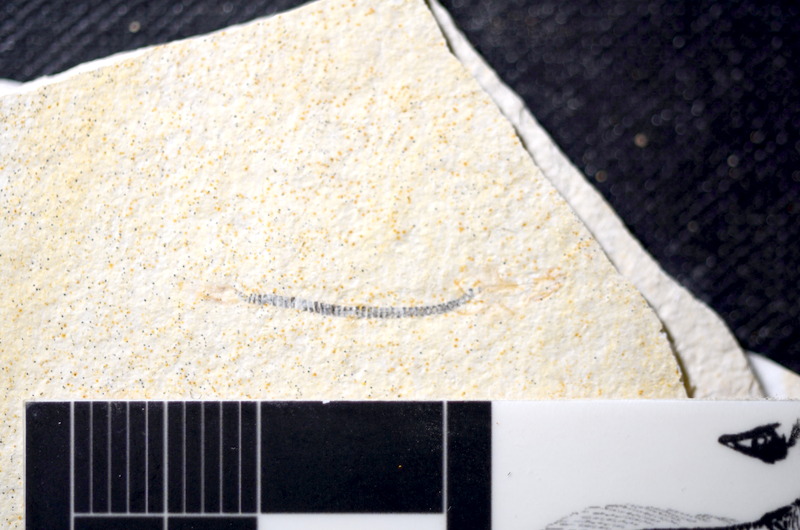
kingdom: Animalia
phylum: Chordata
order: Salmoniformes
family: Orthogonikleithridae
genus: Orthogonikleithrus
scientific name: Orthogonikleithrus hoelli
